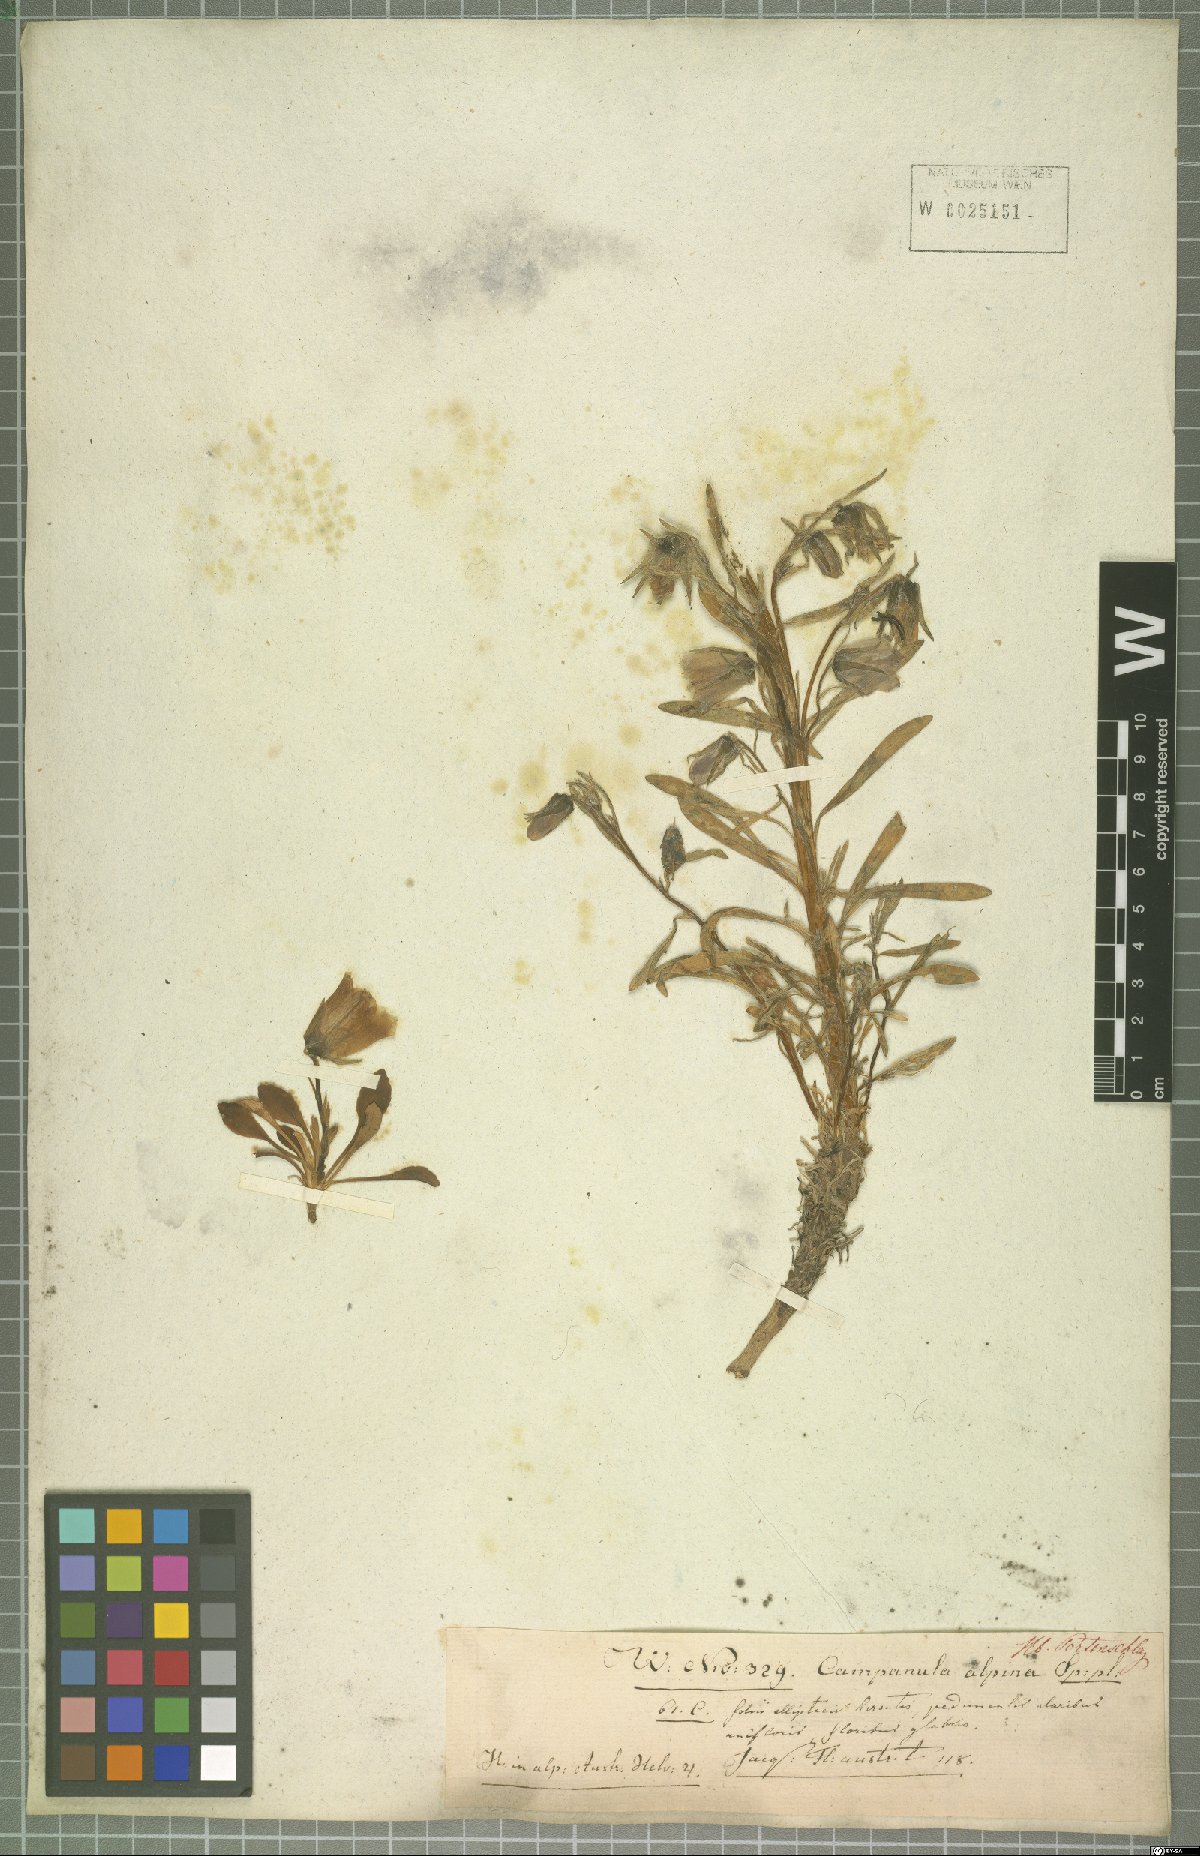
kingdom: Plantae
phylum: Tracheophyta
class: Magnoliopsida
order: Asterales
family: Campanulaceae
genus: Campanula
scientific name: Campanula alpina
